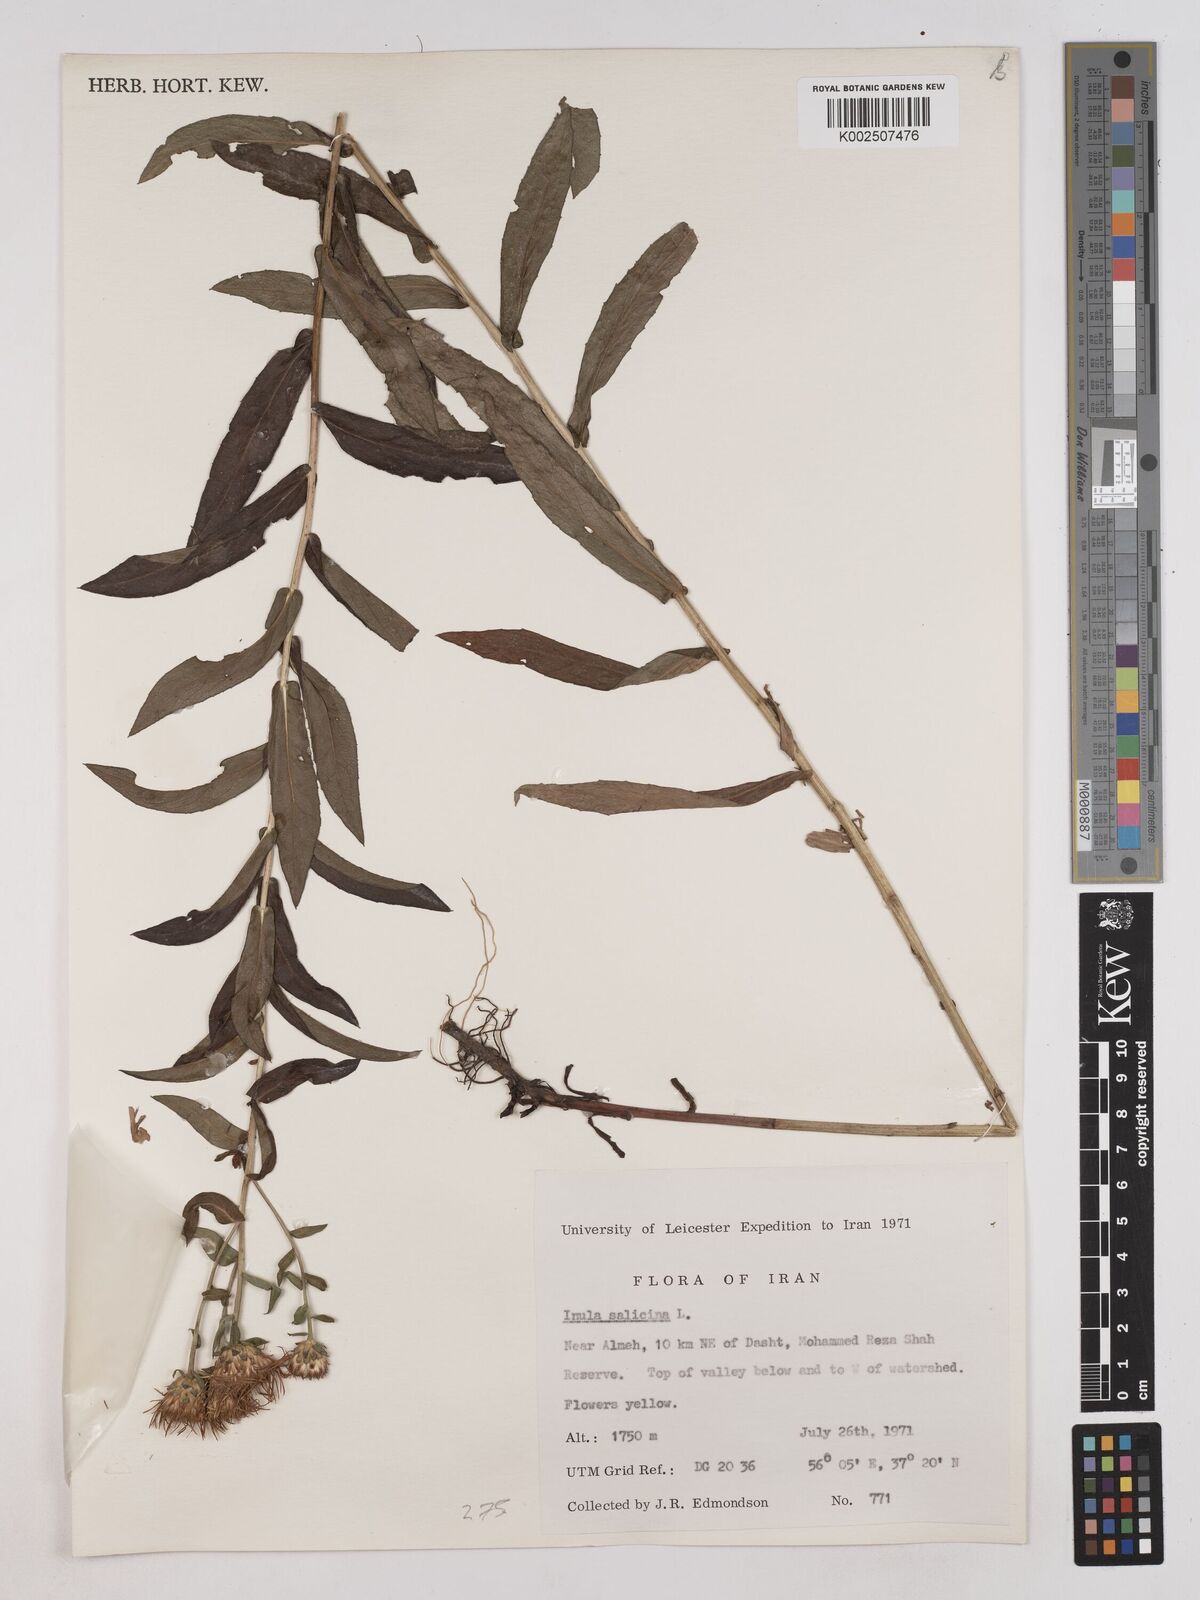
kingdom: Plantae
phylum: Tracheophyta
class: Magnoliopsida
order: Asterales
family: Asteraceae
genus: Pentanema
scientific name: Pentanema salicinum
